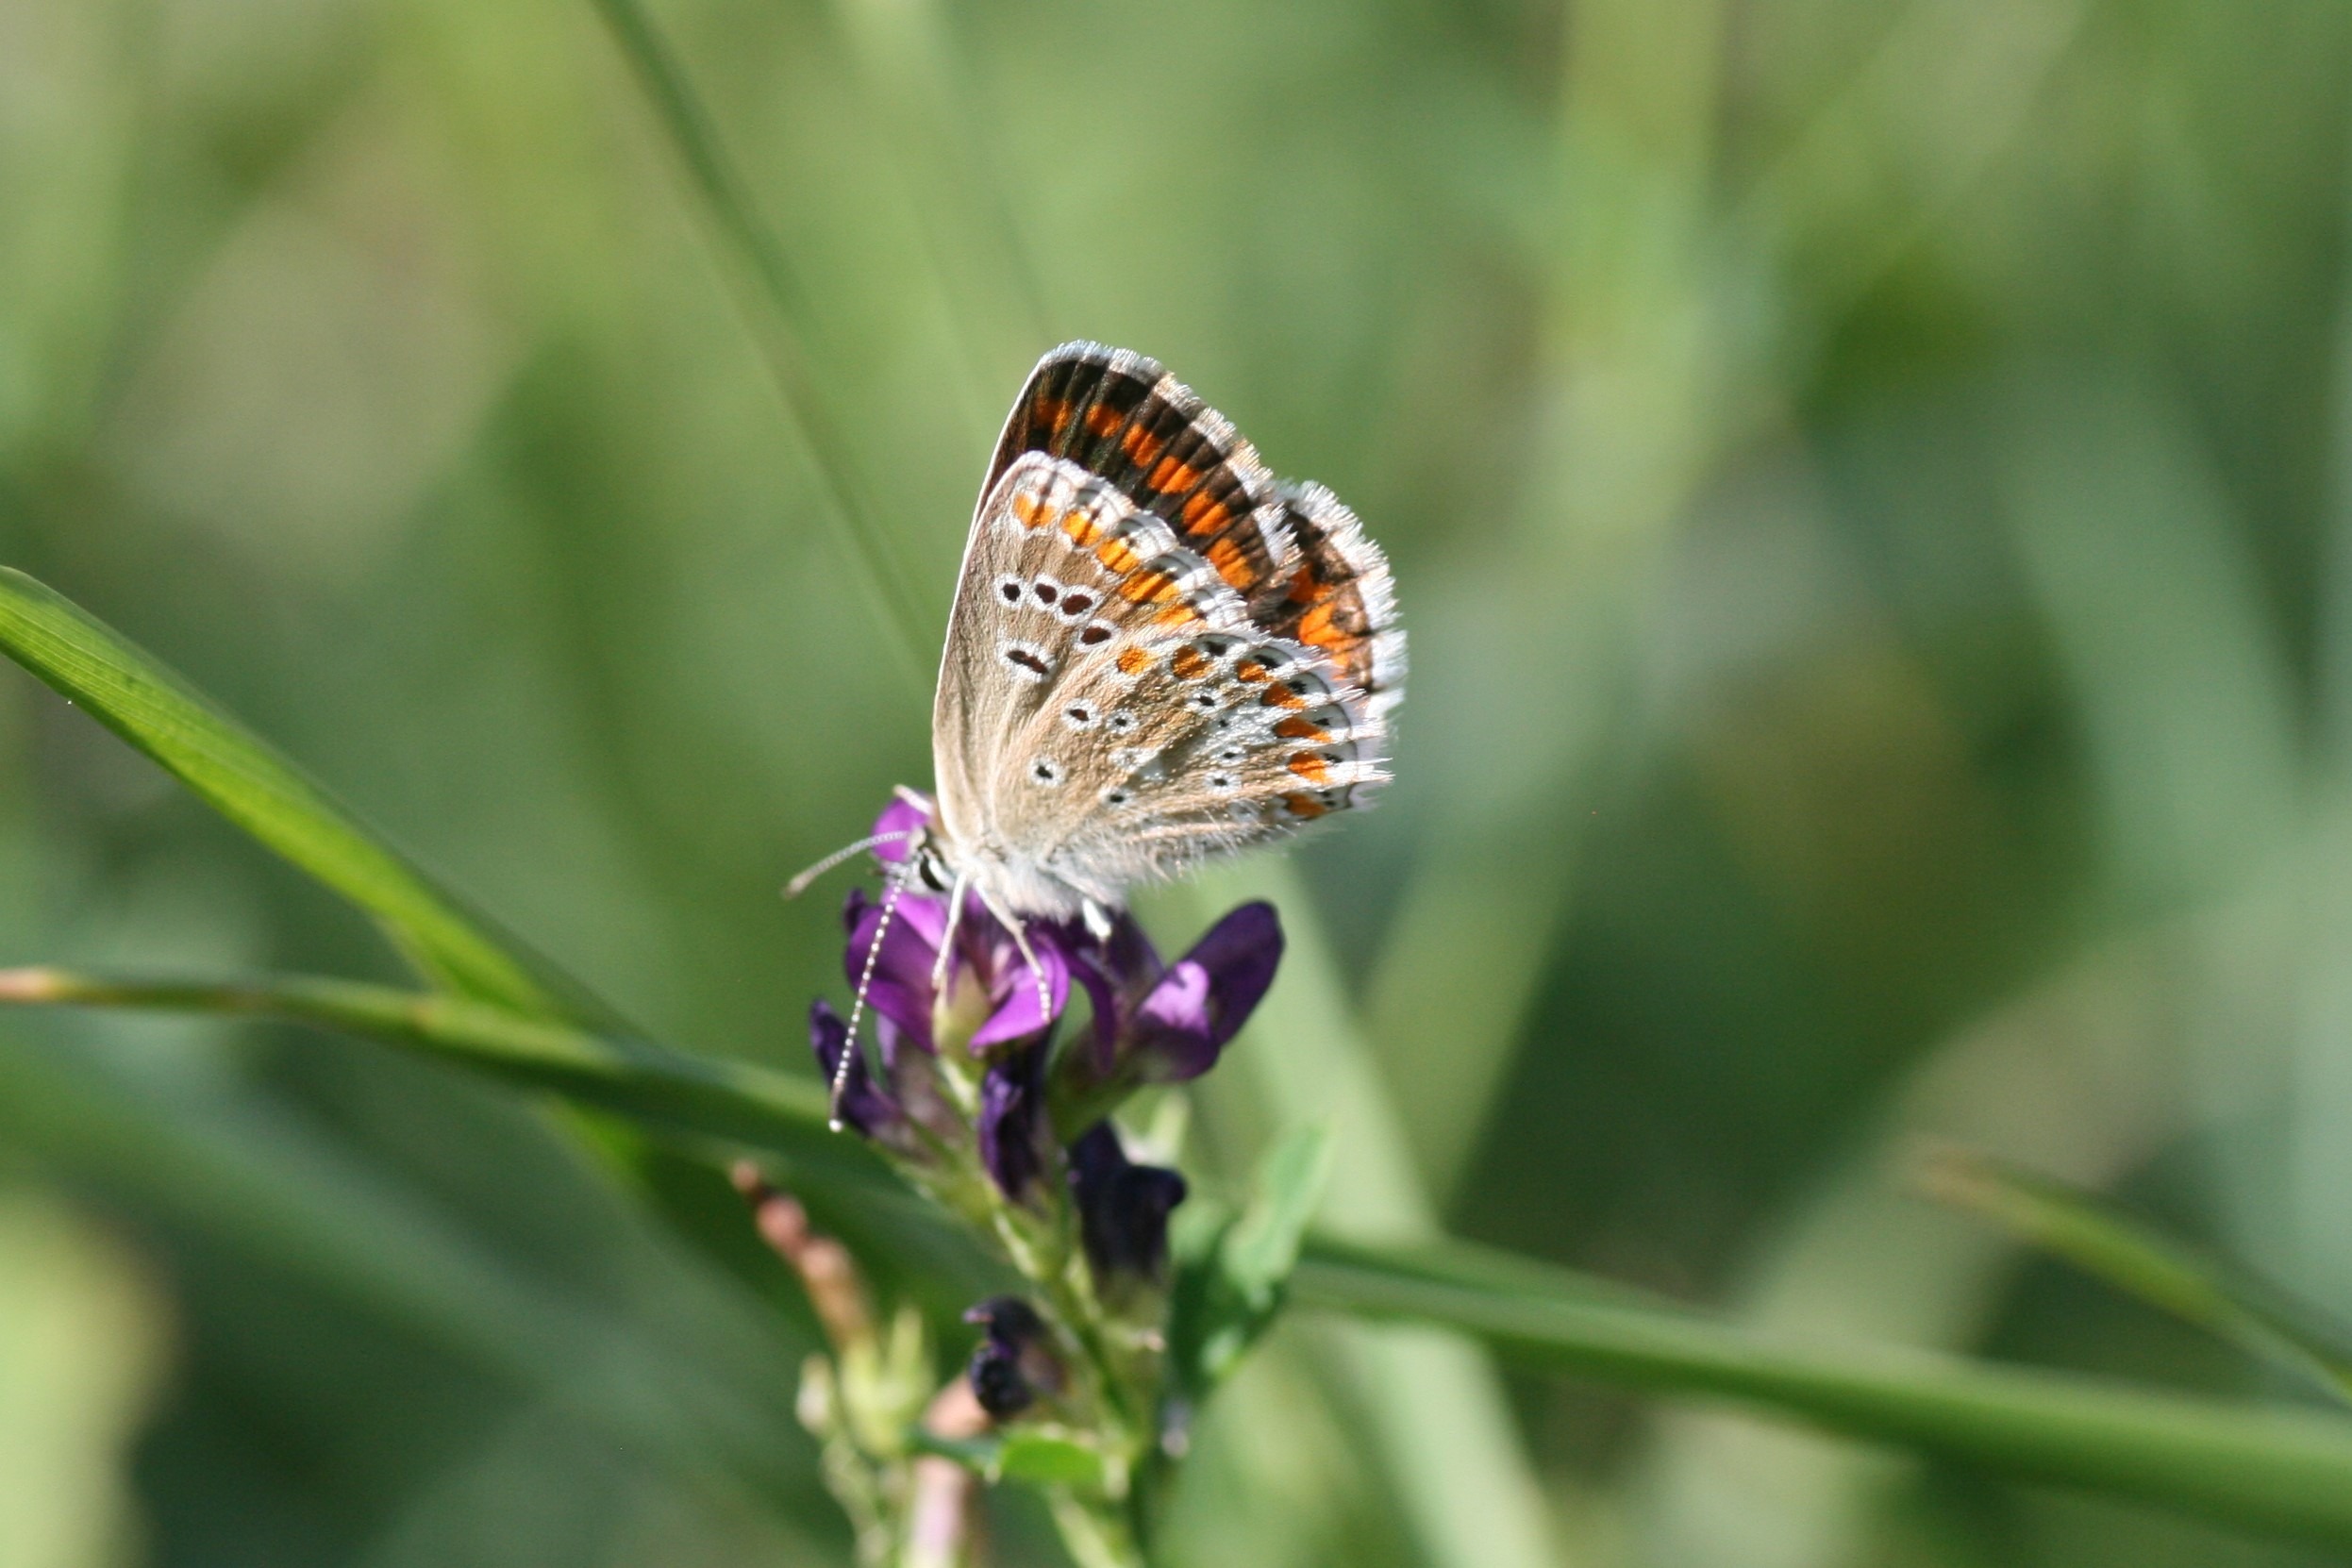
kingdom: Animalia
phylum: Arthropoda
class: Insecta
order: Lepidoptera
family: Lycaenidae
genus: Aricia
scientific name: Aricia agestis
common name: Rødplettet blåfugl
